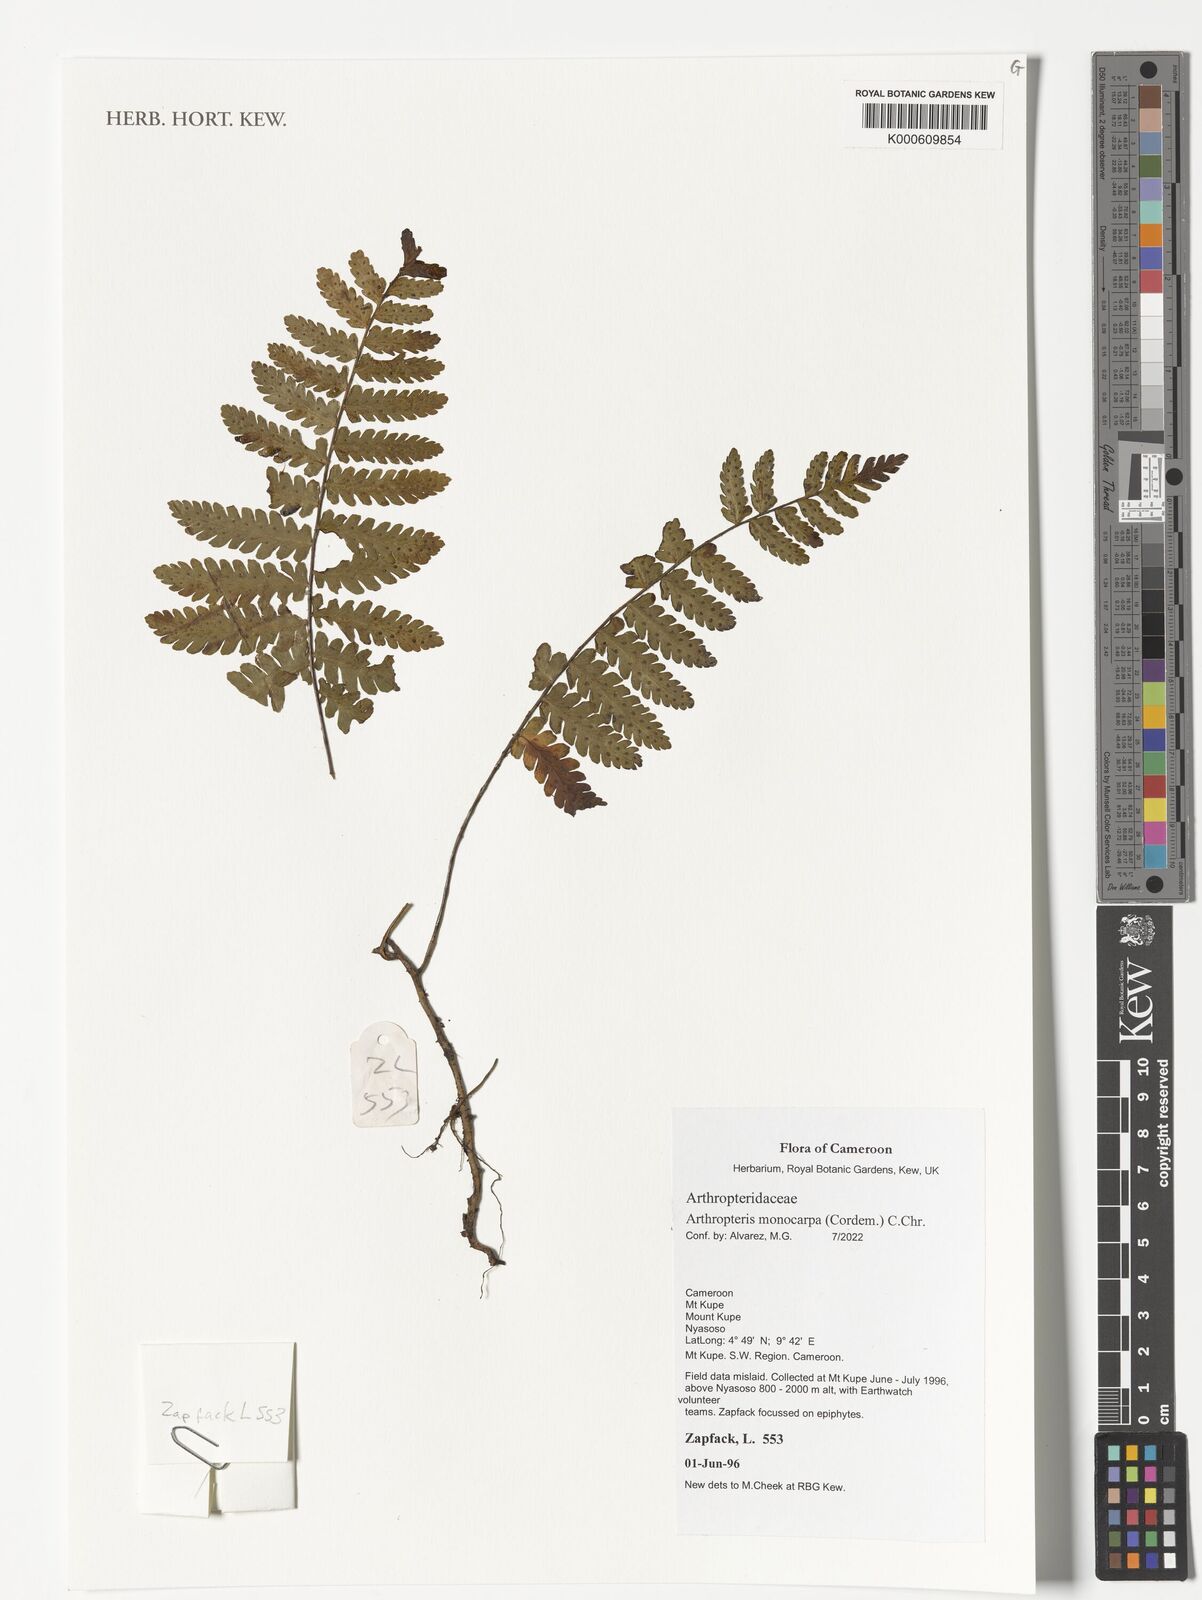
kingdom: Plantae
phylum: Tracheophyta
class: Polypodiopsida
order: Polypodiales
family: Tectariaceae
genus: Arthropteris
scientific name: Arthropteris monocarpa
